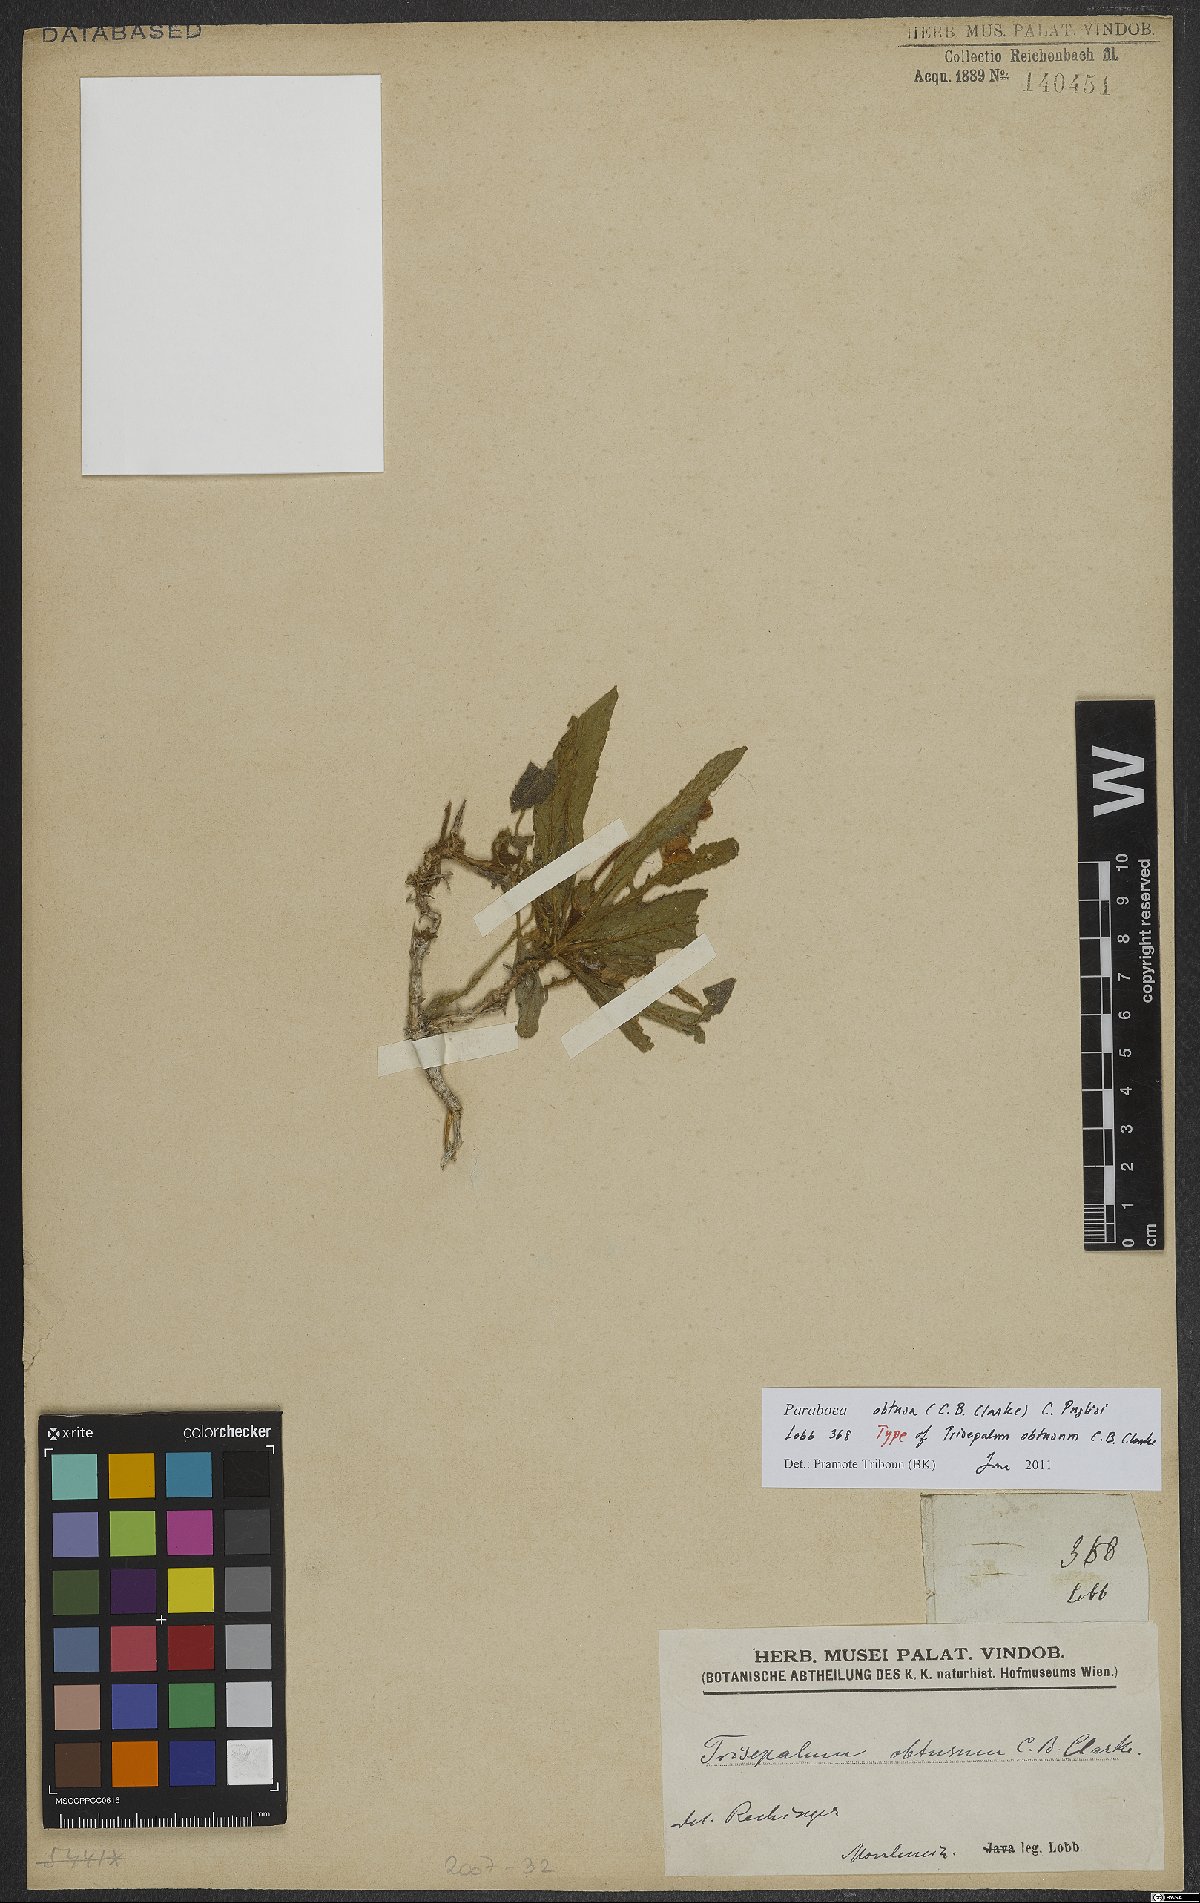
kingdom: Plantae
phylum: Tracheophyta
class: Magnoliopsida
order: Lamiales
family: Gesneriaceae
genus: Paraboea
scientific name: Paraboea obtusa
